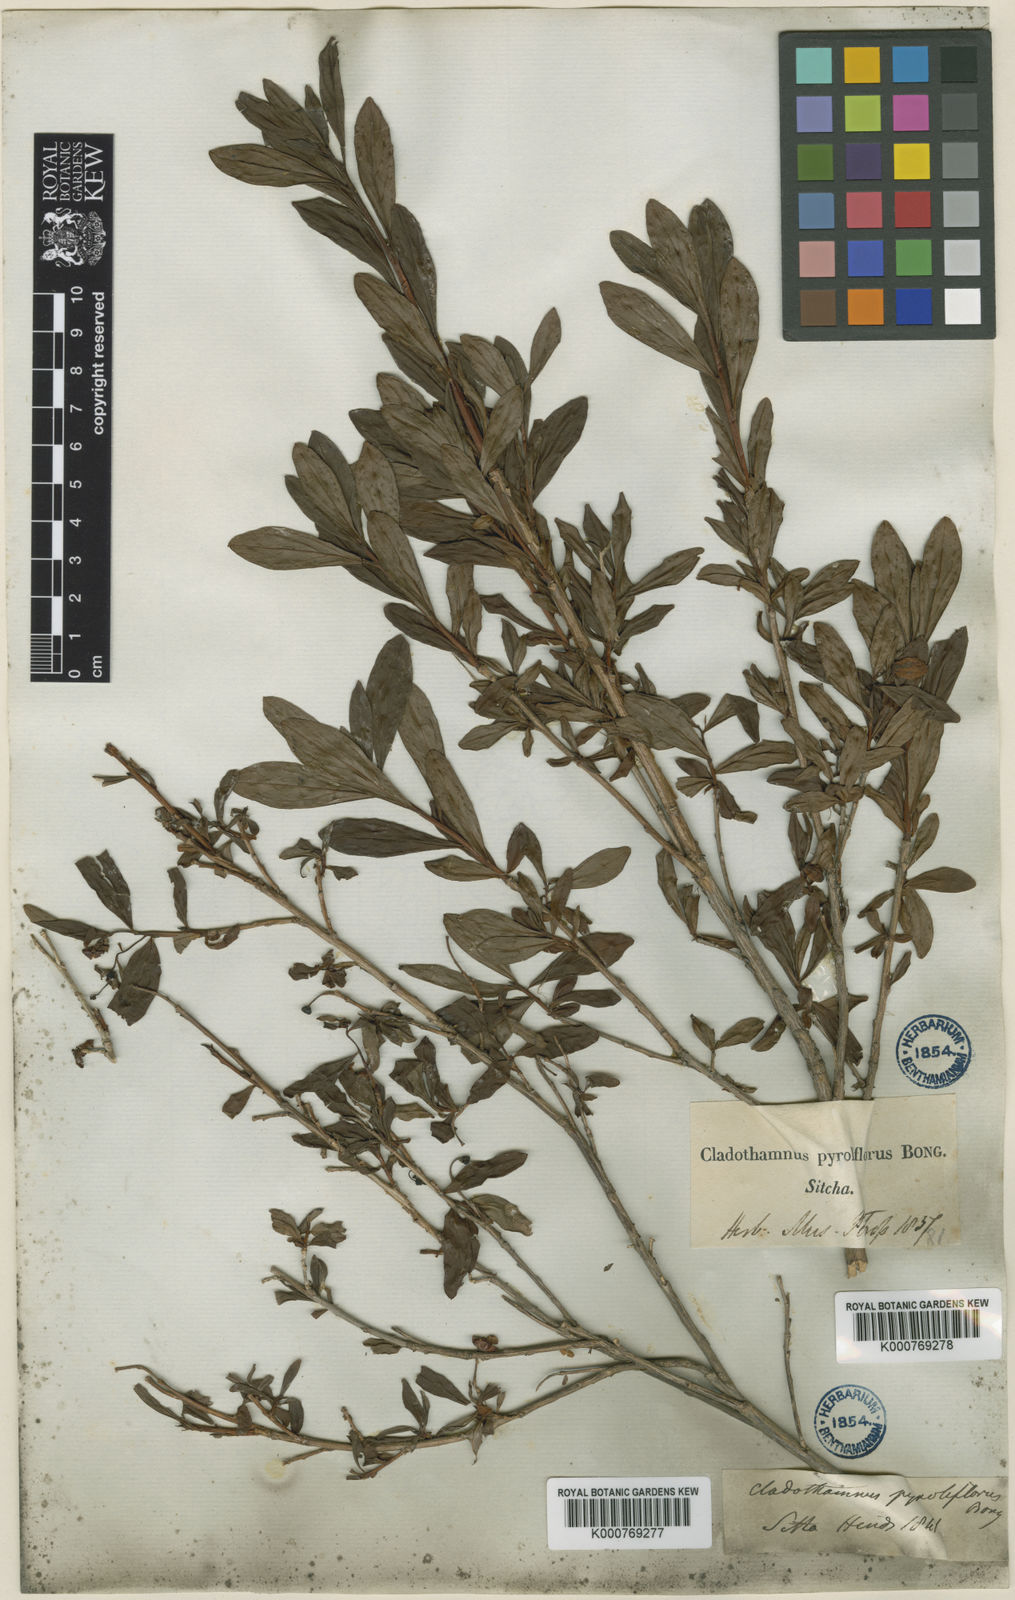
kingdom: Plantae
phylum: Tracheophyta
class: Magnoliopsida
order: Ericales
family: Ericaceae
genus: Elliottia
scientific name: Elliottia pyroliflora
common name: Copperbush
